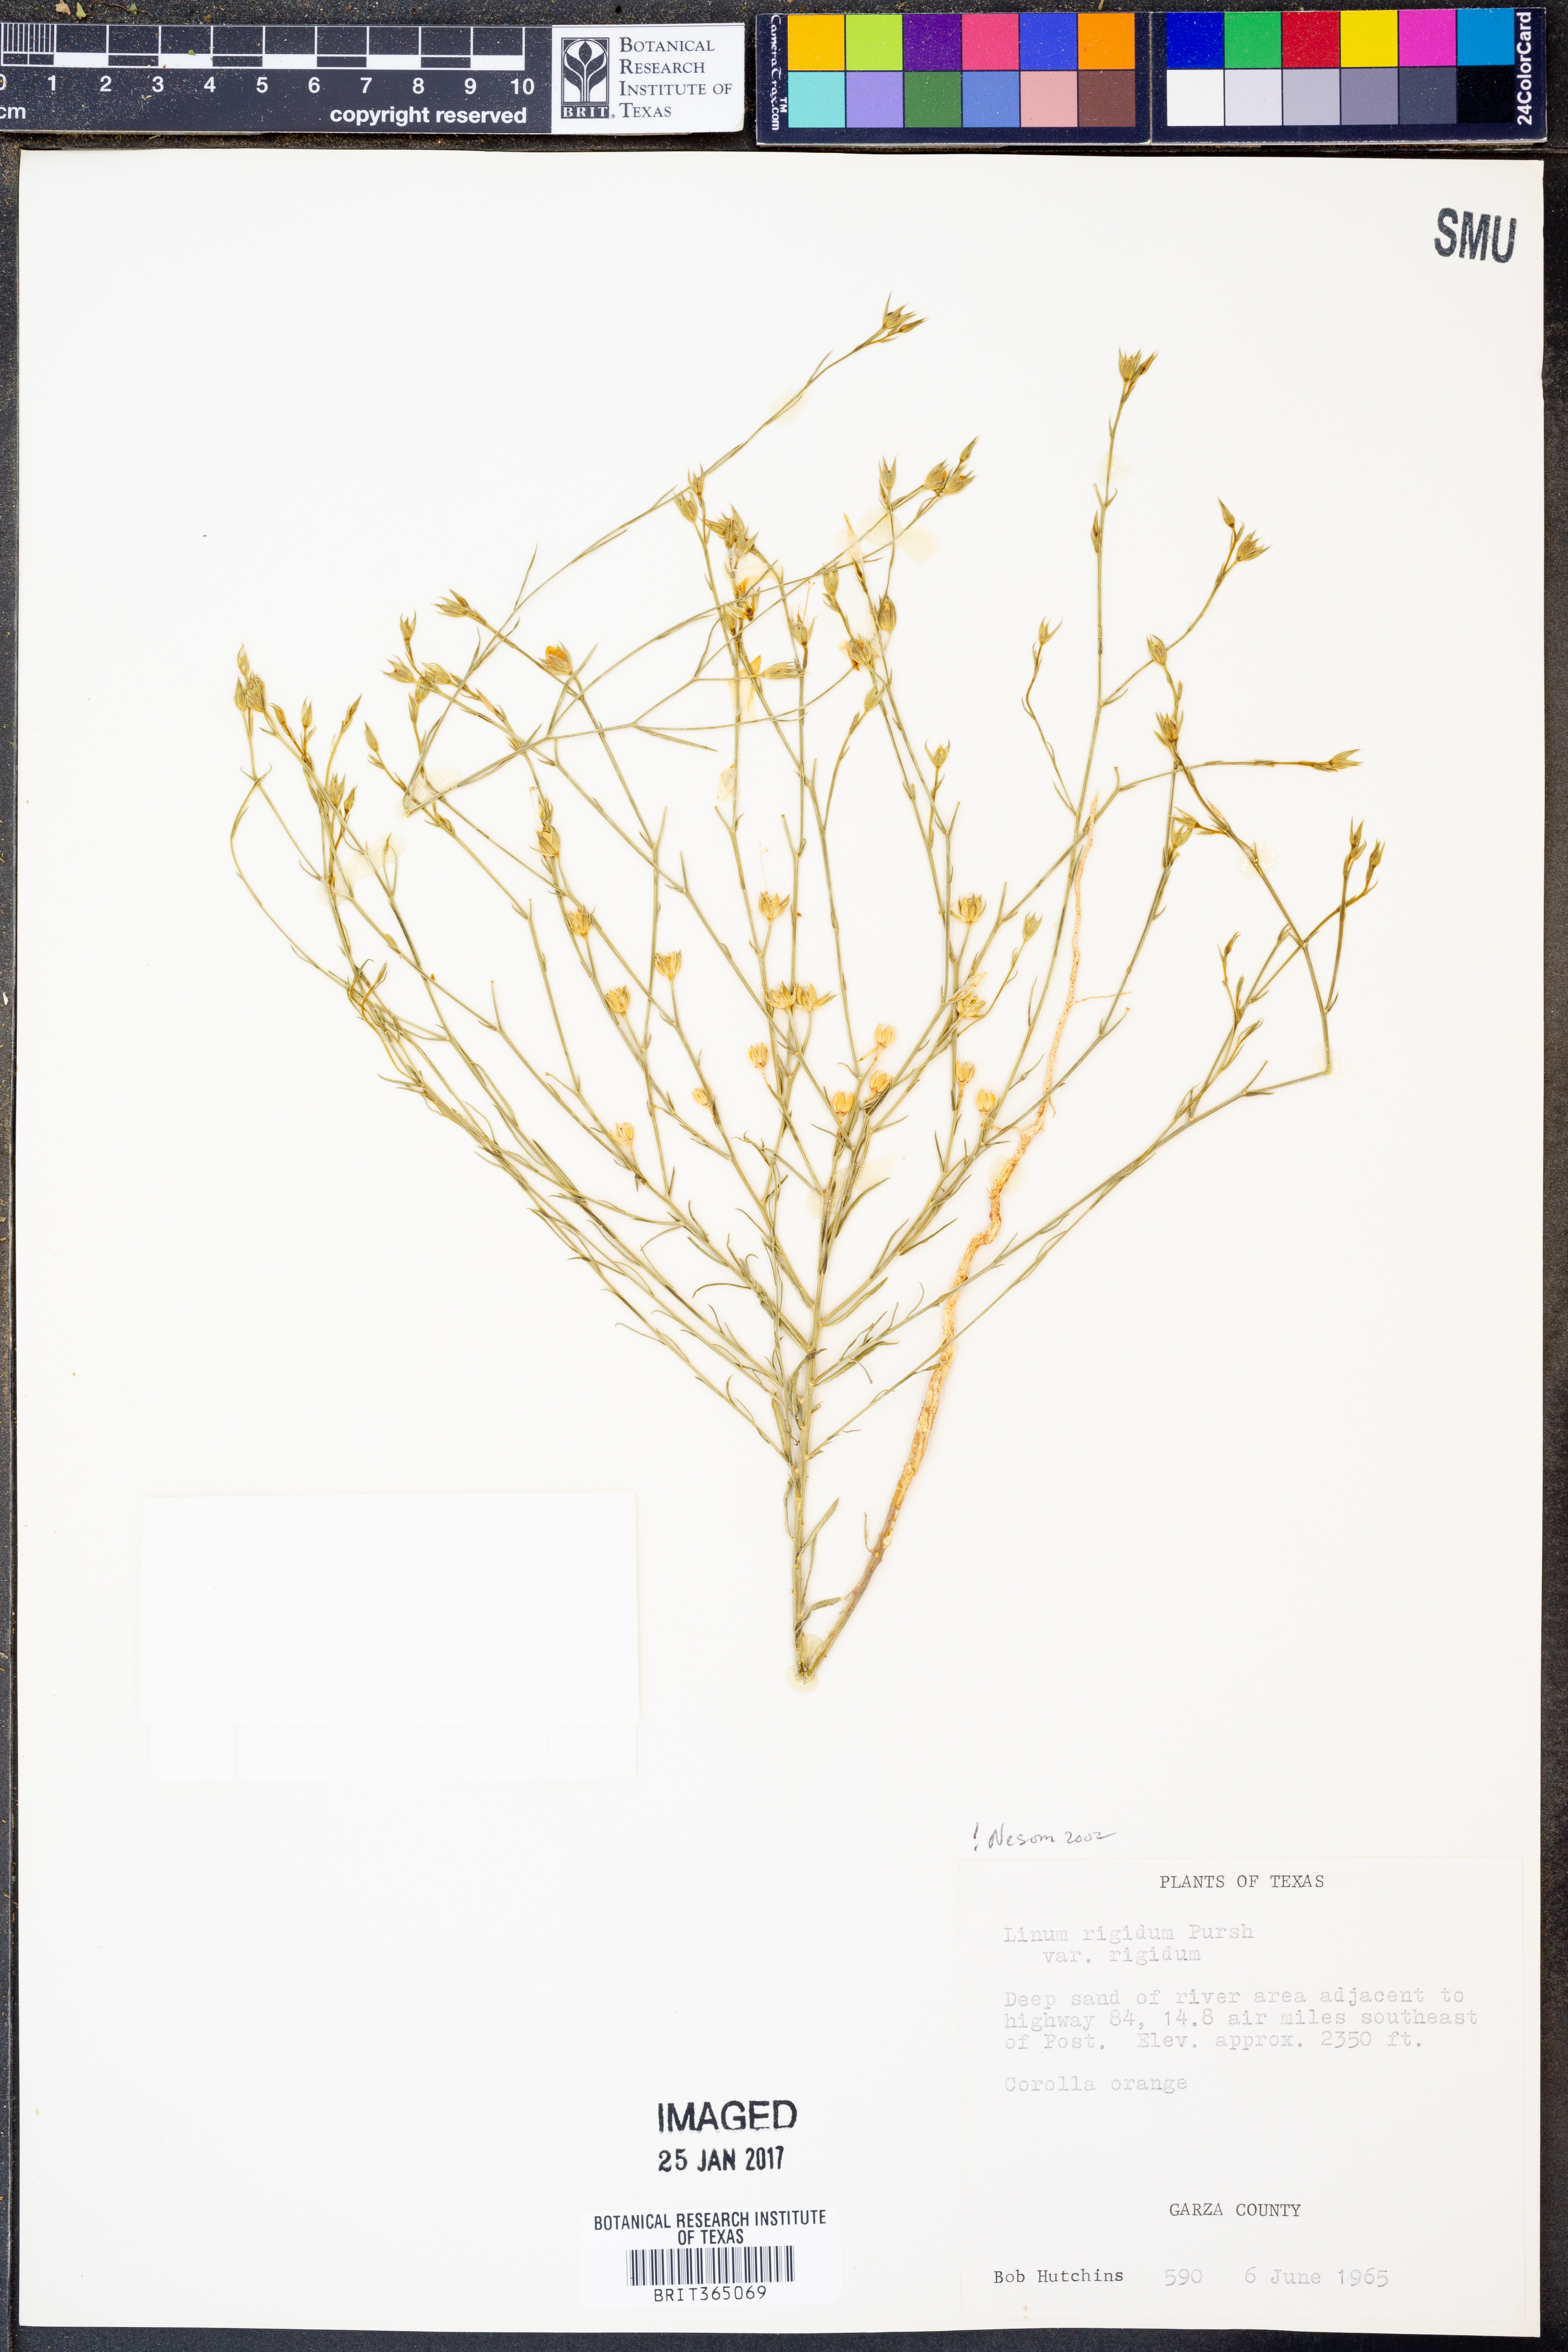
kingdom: Plantae
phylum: Tracheophyta
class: Magnoliopsida
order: Malpighiales
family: Linaceae
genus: Linum
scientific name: Linum rigidum
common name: Stiff-stem flax
